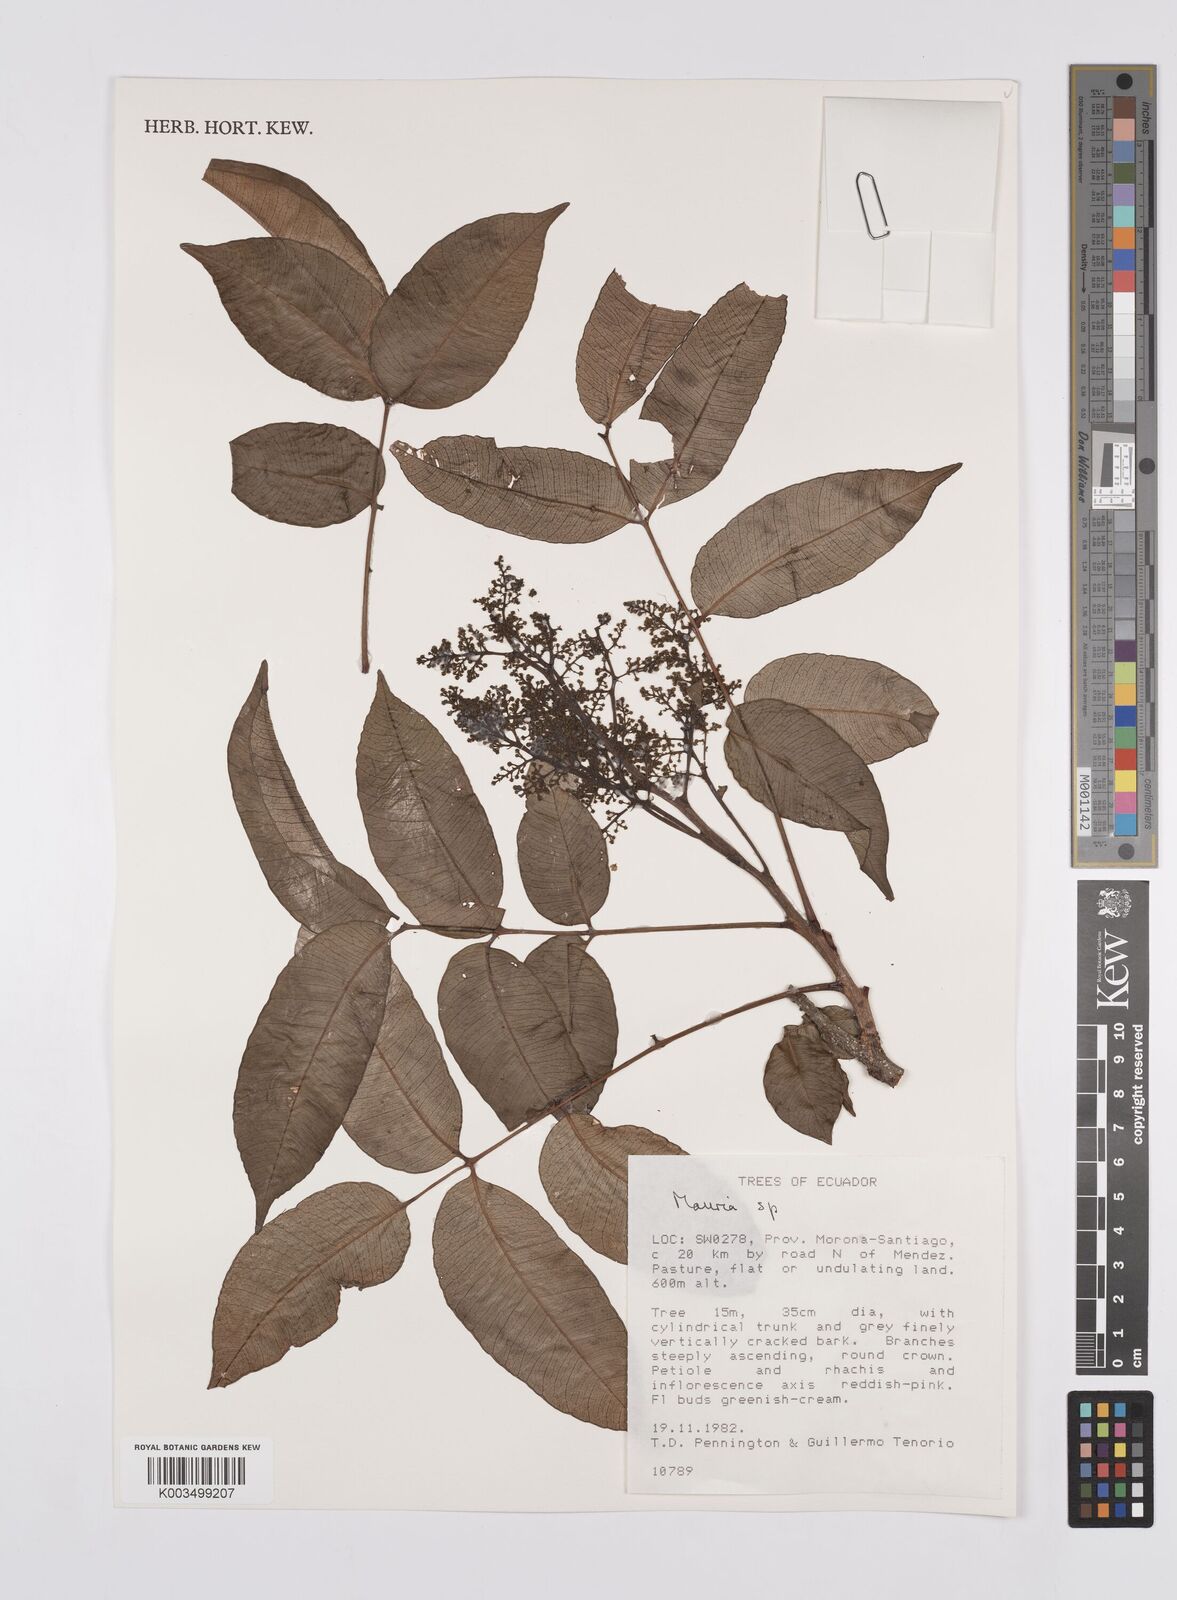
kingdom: Plantae
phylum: Tracheophyta
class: Magnoliopsida
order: Sapindales
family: Anacardiaceae
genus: Mauria
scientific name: Mauria
